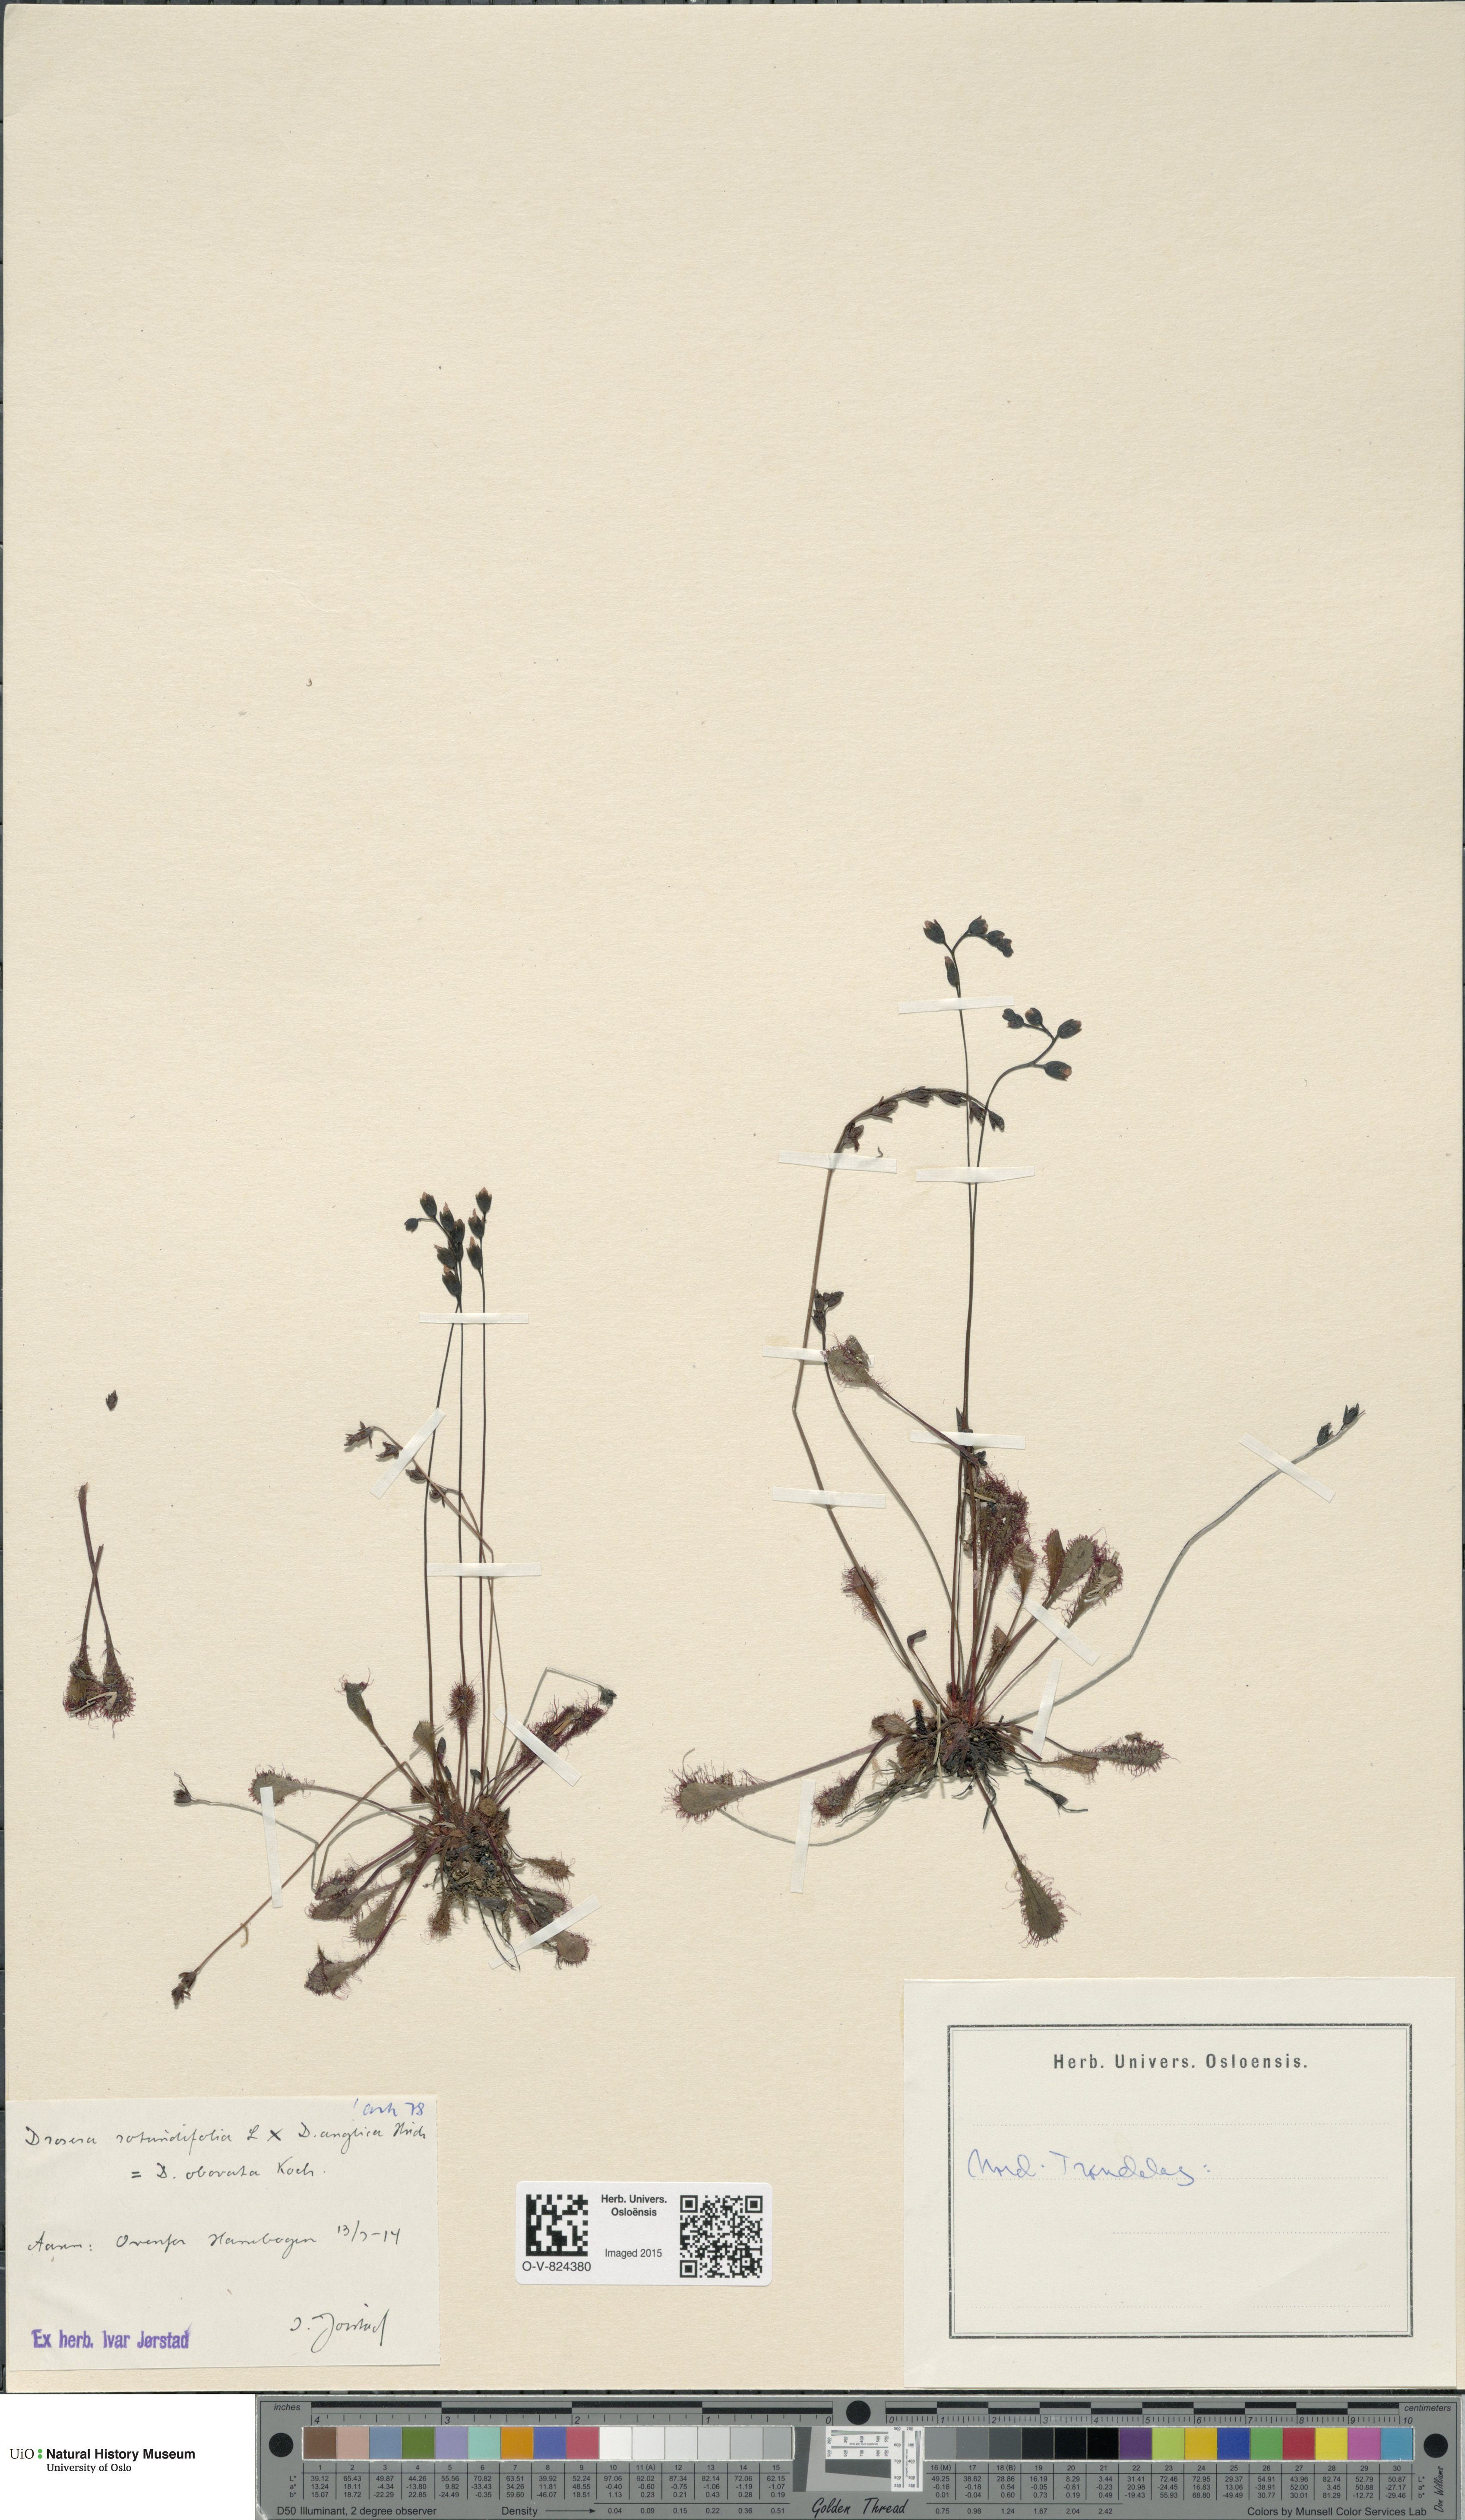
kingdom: Plantae
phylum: Tracheophyta
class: Magnoliopsida
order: Caryophyllales
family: Droseraceae
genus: Drosera
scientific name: Drosera
